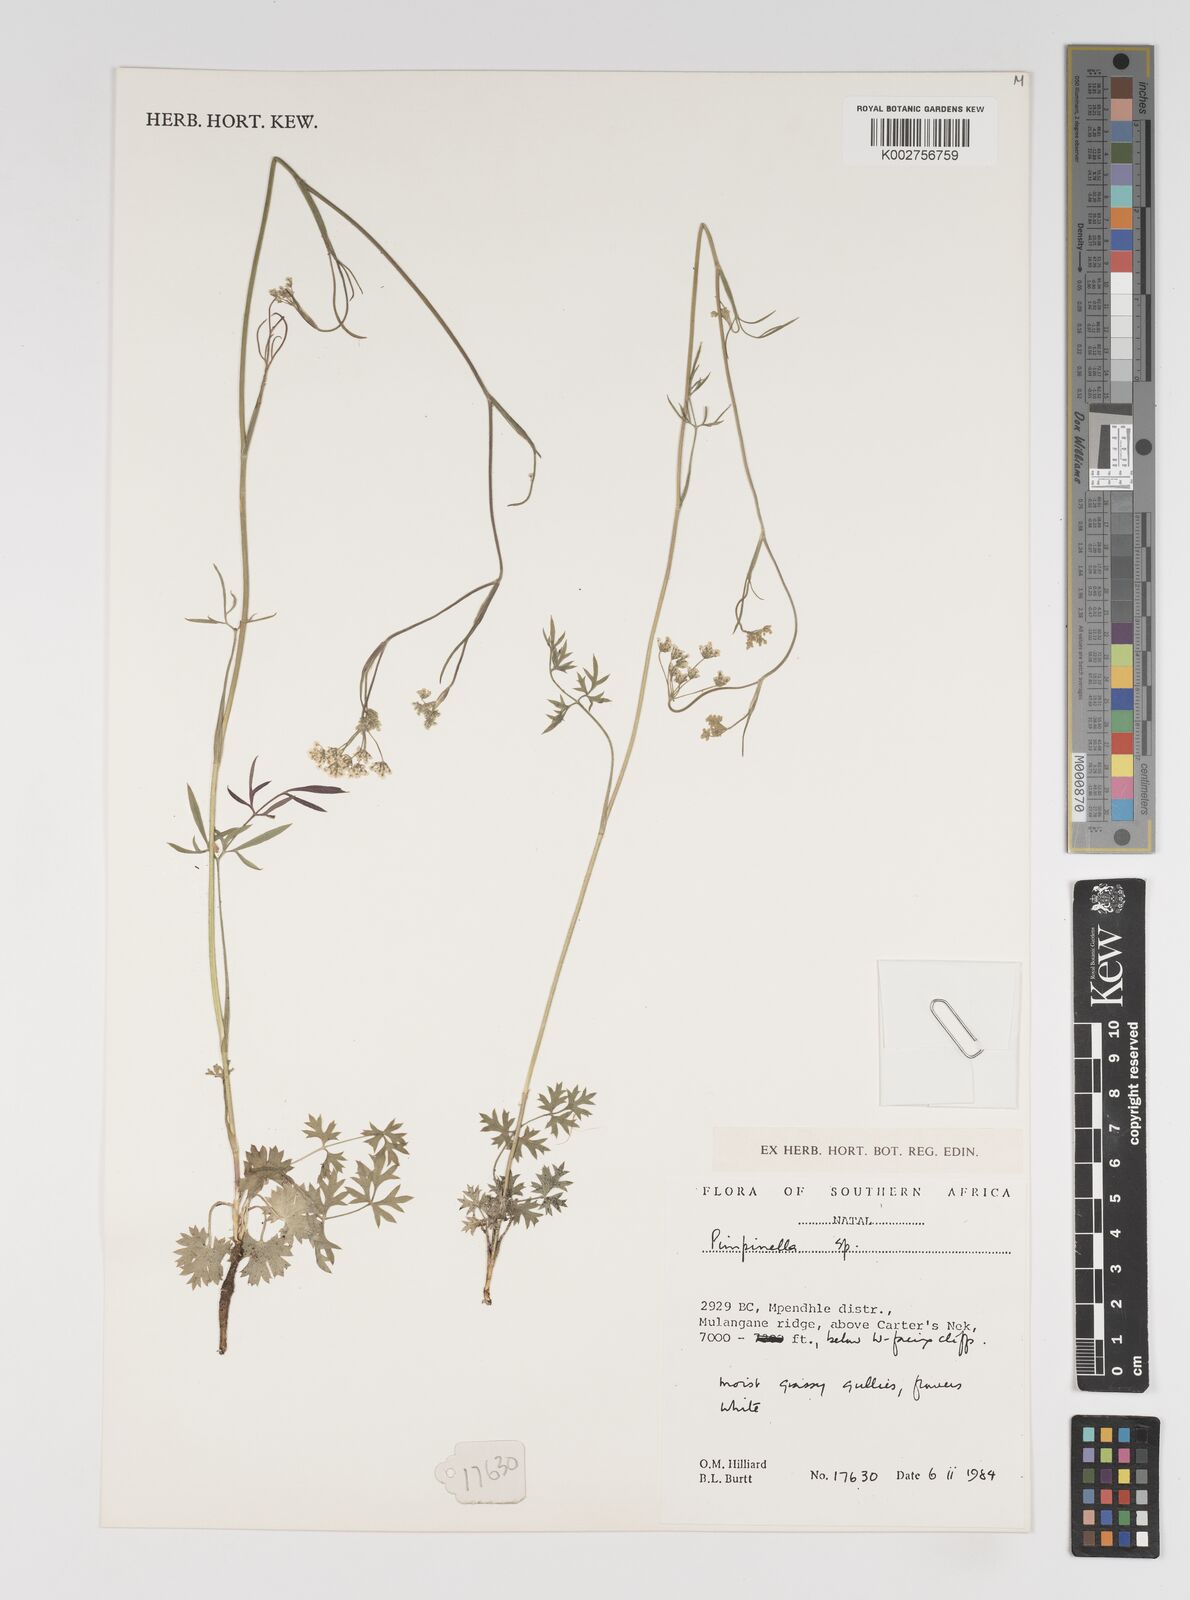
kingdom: Plantae
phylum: Tracheophyta
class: Magnoliopsida
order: Apiales
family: Apiaceae
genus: Pimpinella
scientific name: Pimpinella
